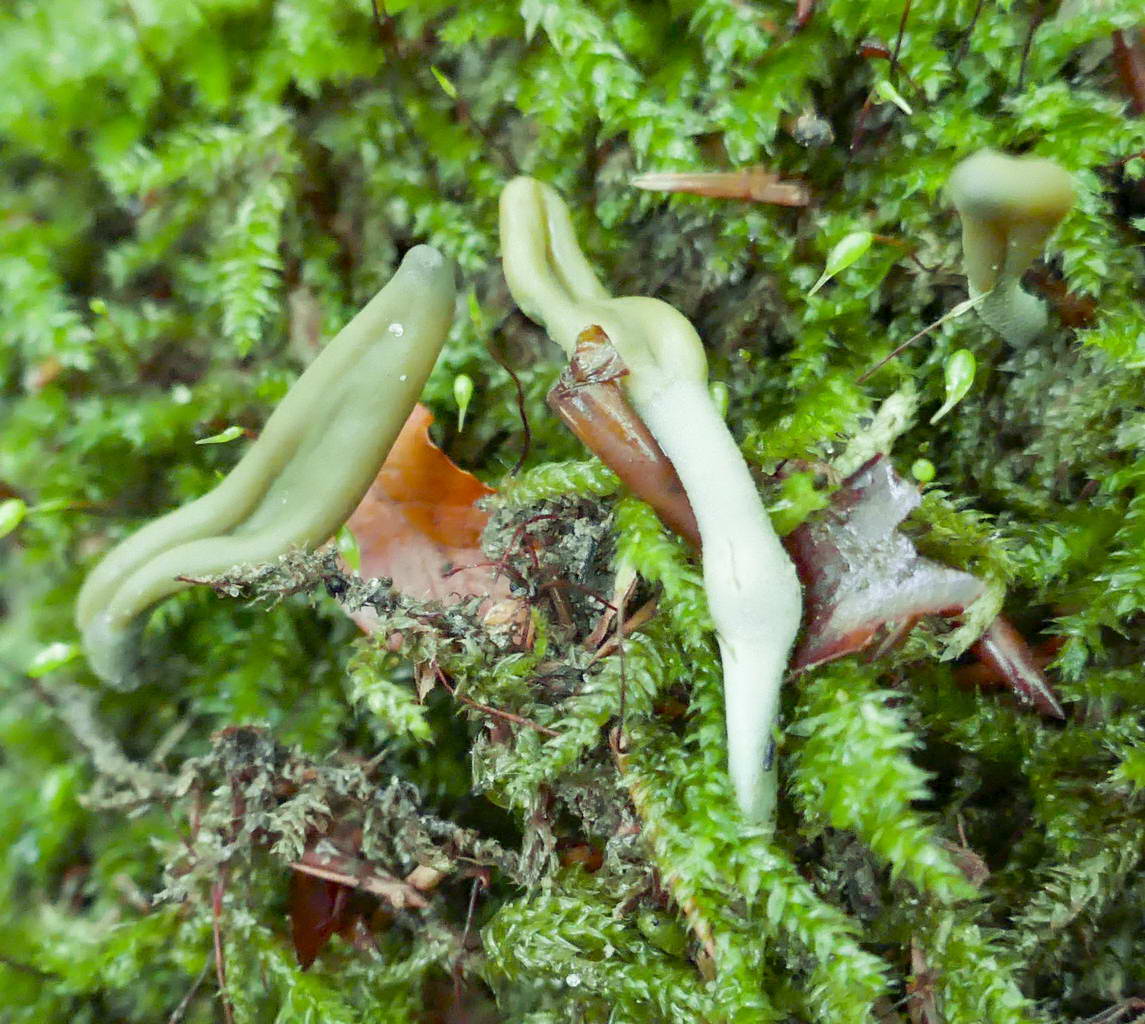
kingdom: Fungi
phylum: Ascomycota
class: Leotiomycetes
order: Leotiales
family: Leotiaceae
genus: Microglossum
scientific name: Microglossum griseoviride
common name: grågrøn farvetunge
